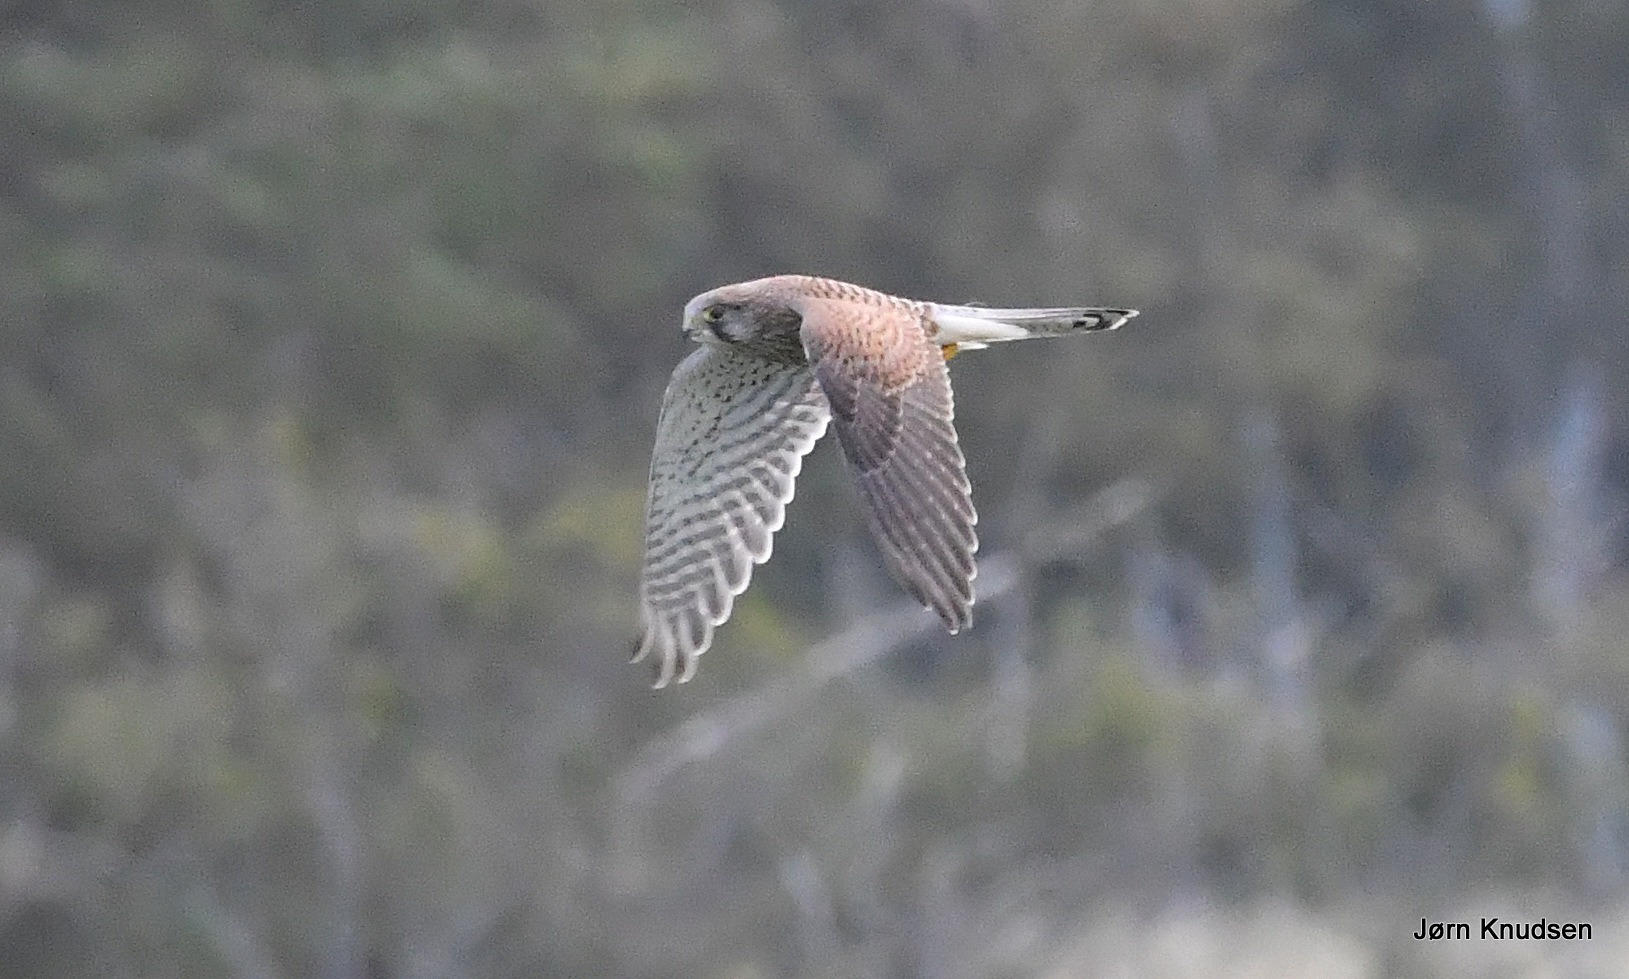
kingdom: Animalia
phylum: Chordata
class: Aves
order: Falconiformes
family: Falconidae
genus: Falco
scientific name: Falco tinnunculus
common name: Tårnfalk
